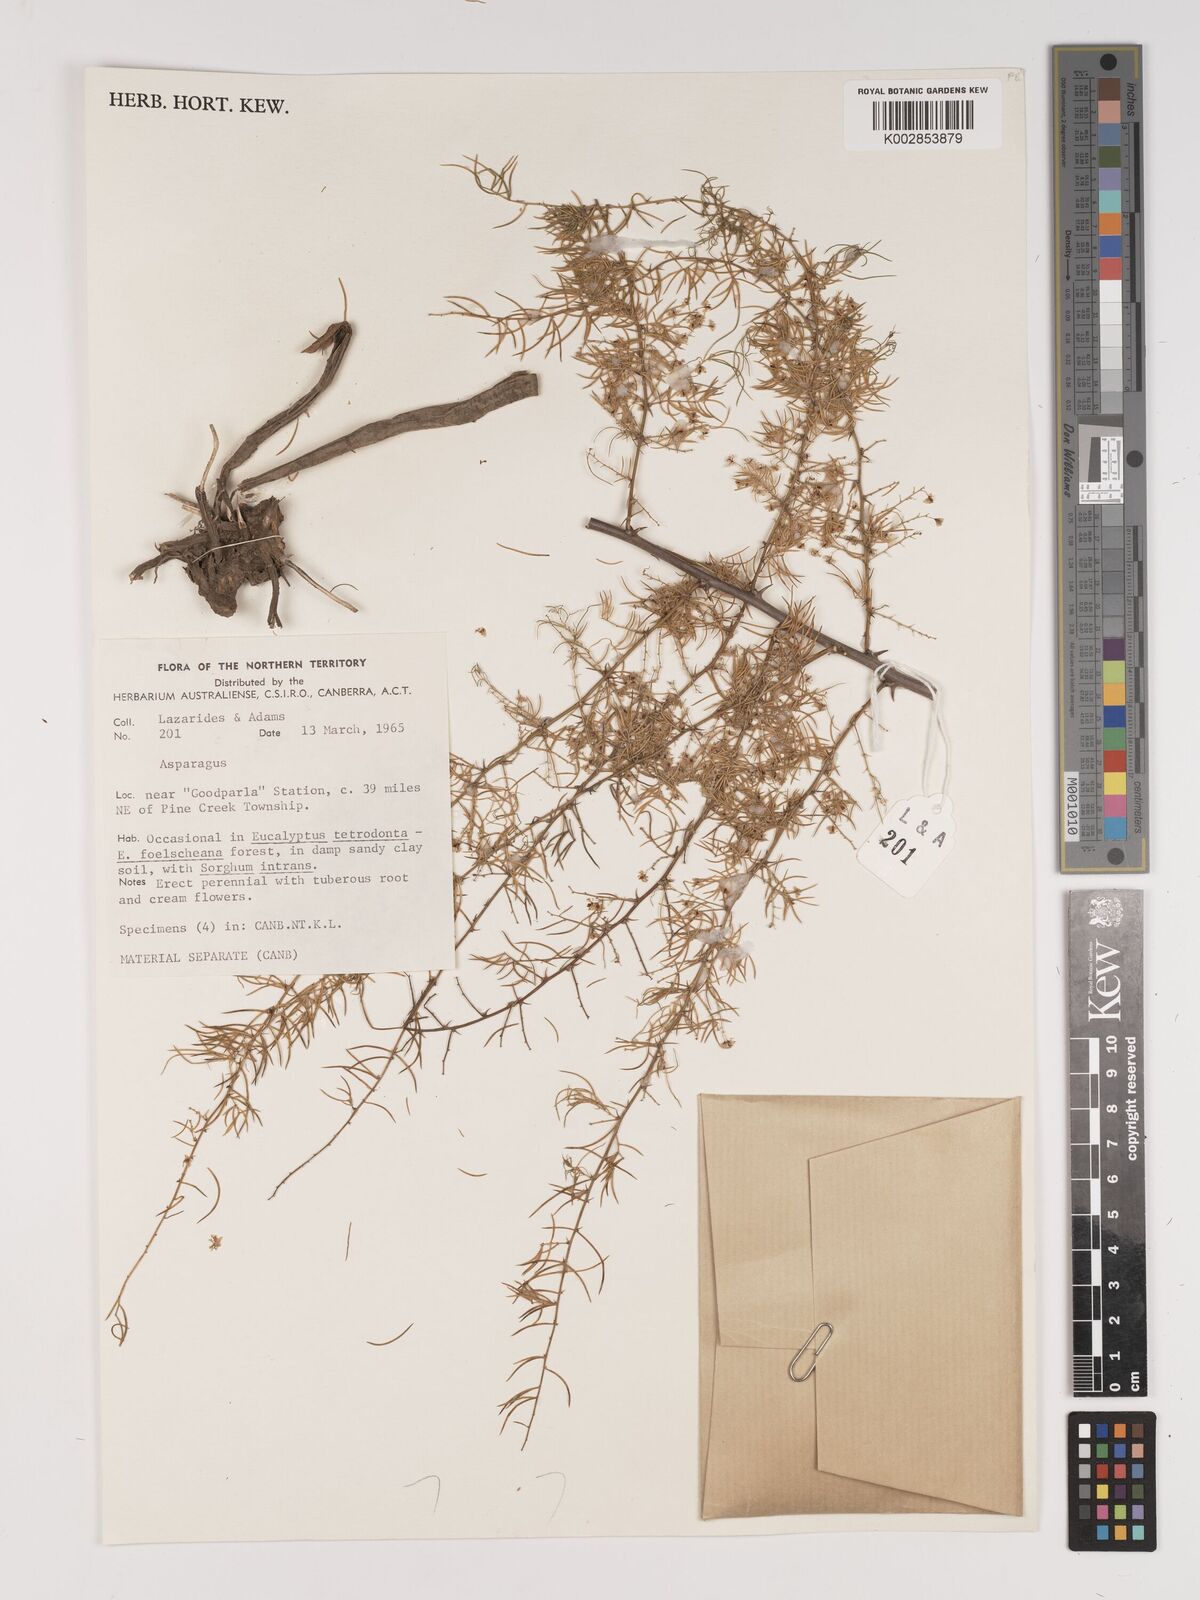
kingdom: Plantae
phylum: Tracheophyta
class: Liliopsida
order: Asparagales
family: Asparagaceae
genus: Asparagus
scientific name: Asparagus
